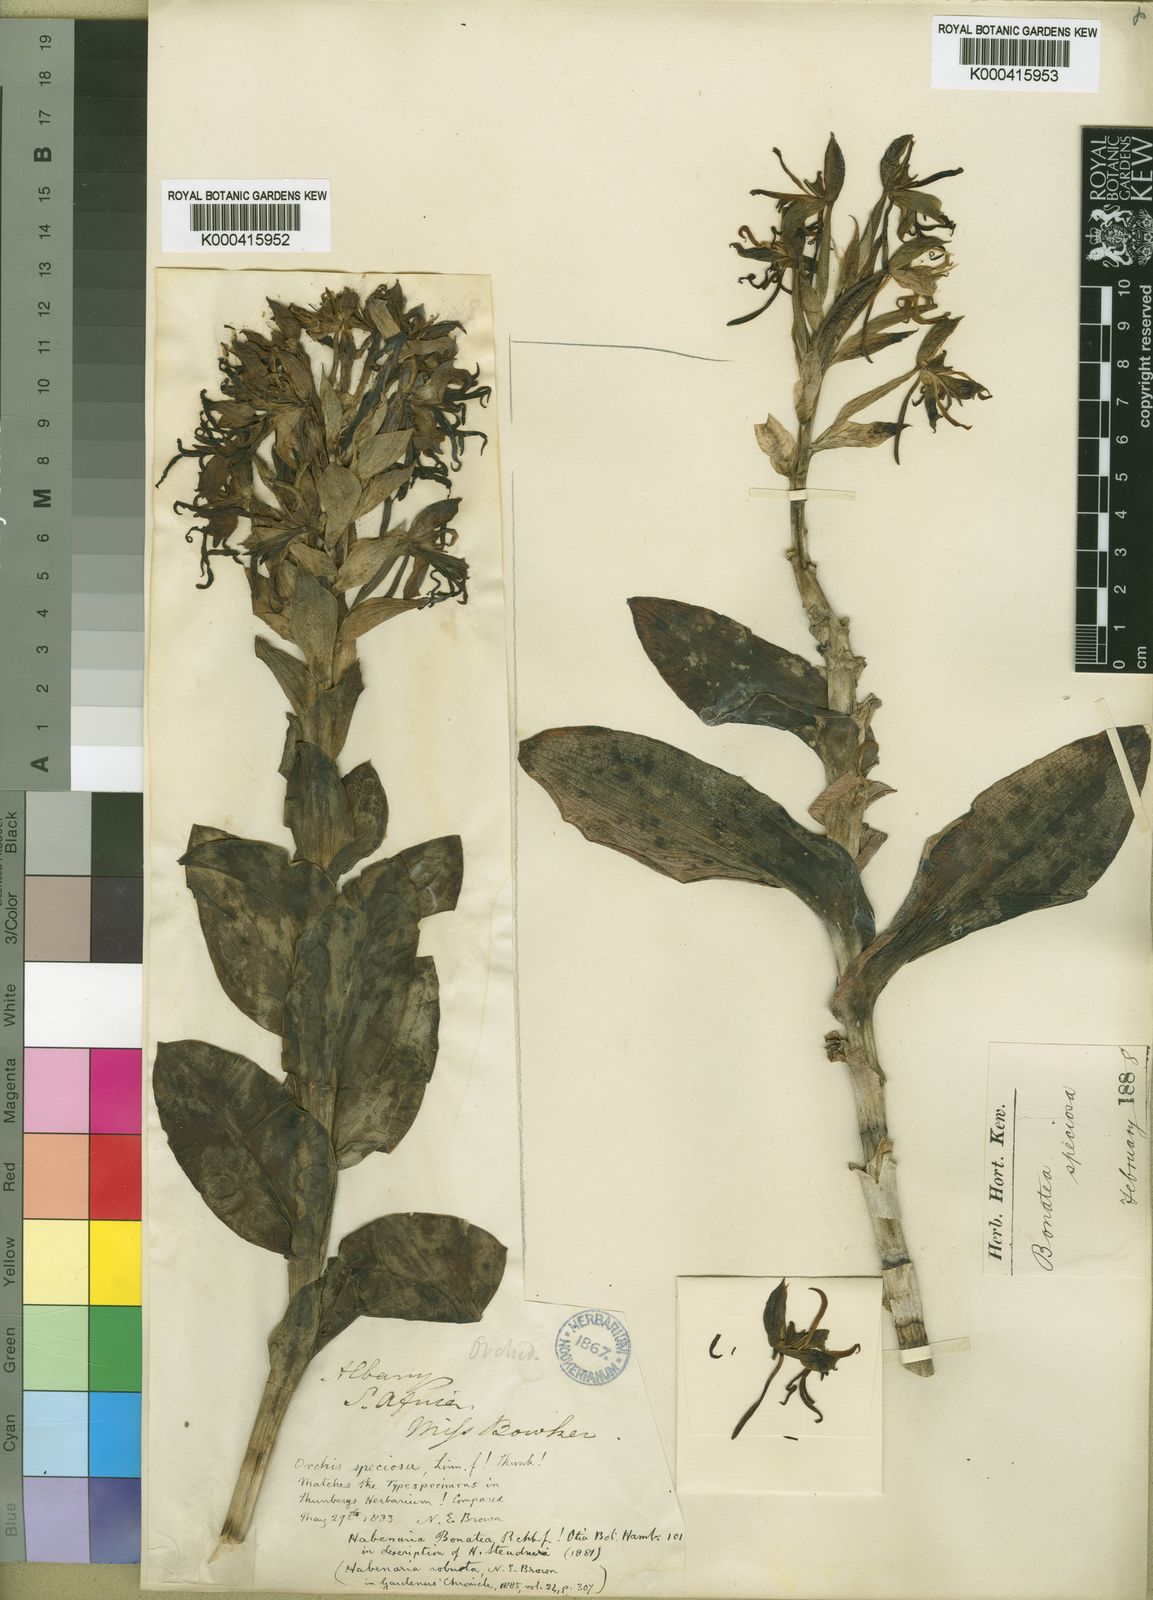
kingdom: Plantae
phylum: Tracheophyta
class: Liliopsida
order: Asparagales
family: Orchidaceae
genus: Bonatea
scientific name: Bonatea speciosa
